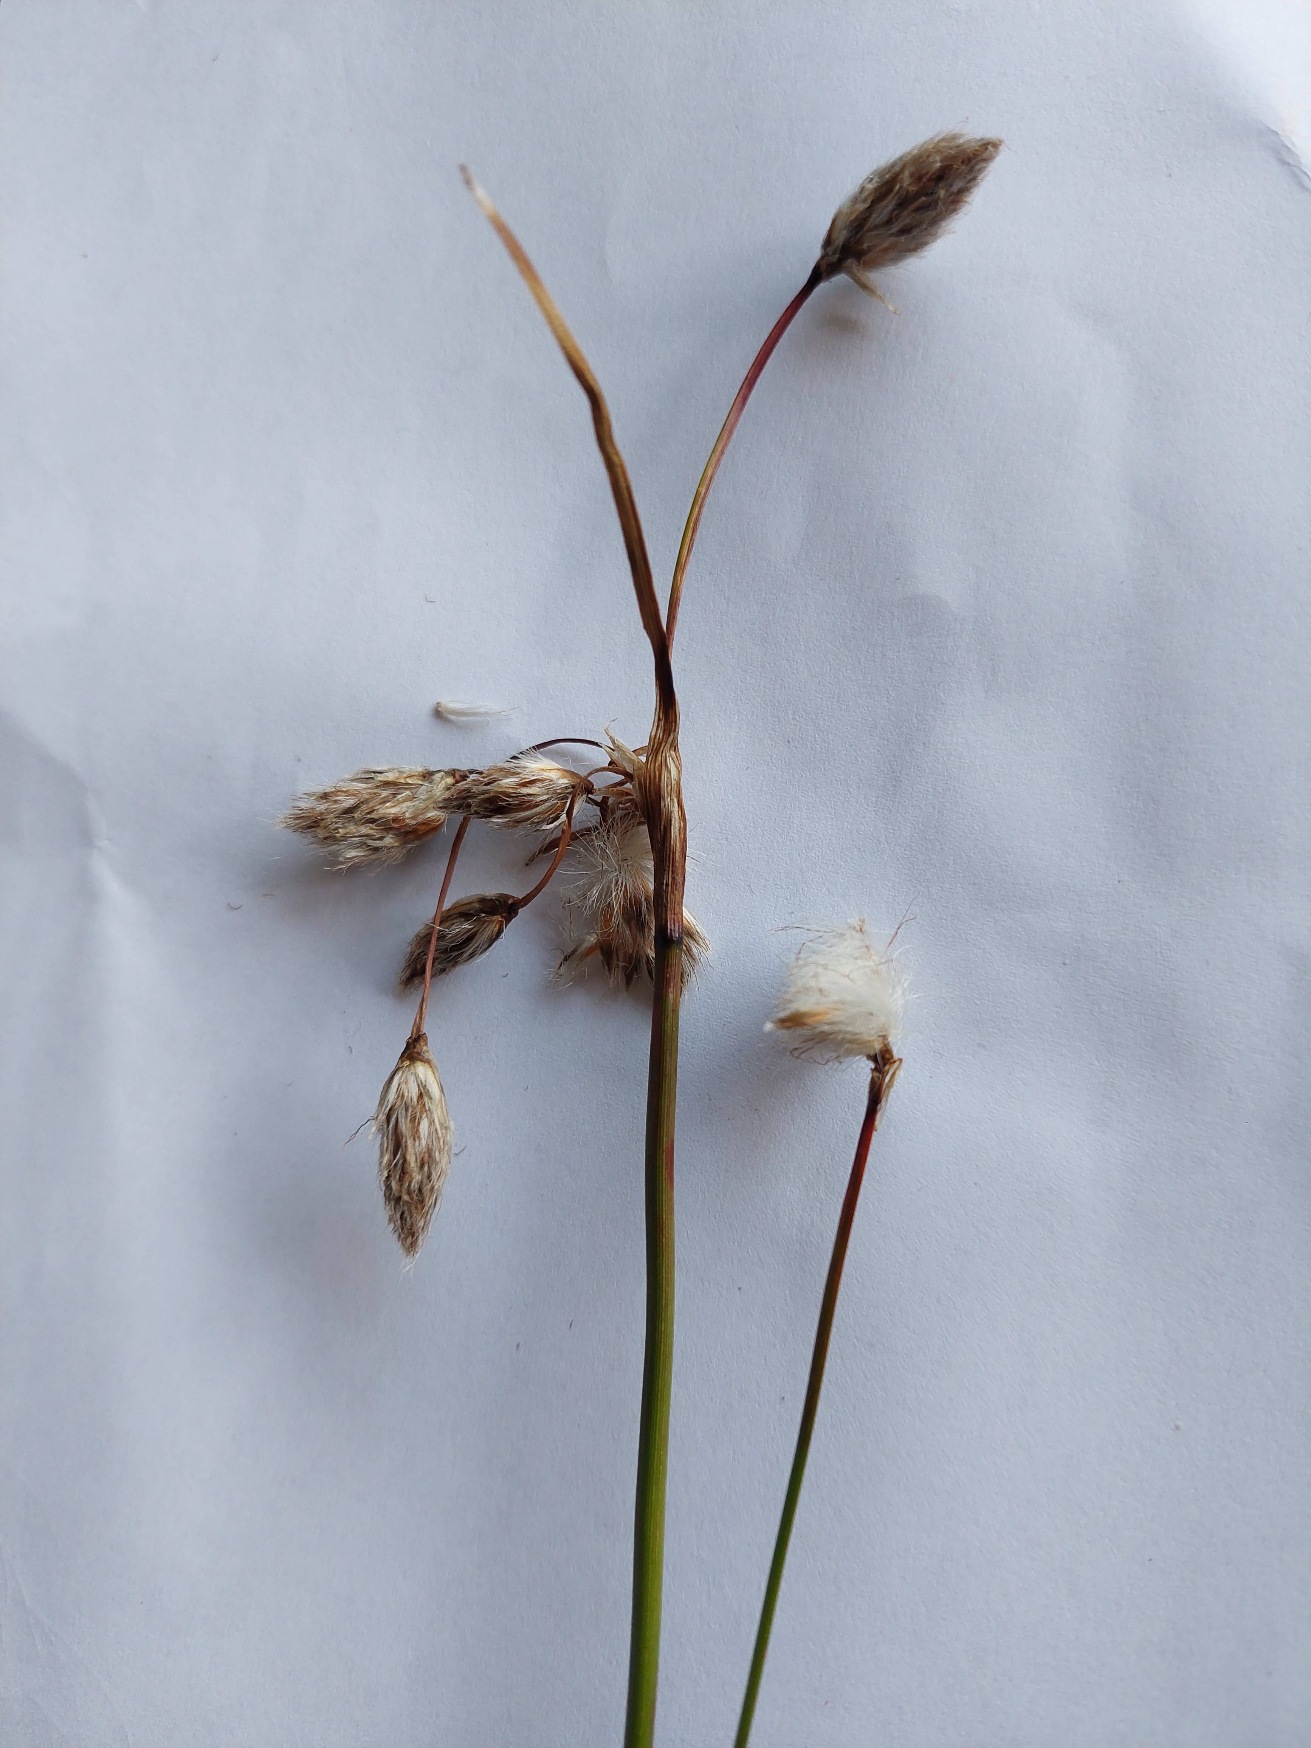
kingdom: Plantae
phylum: Tracheophyta
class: Liliopsida
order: Poales
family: Cyperaceae
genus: Eriophorum
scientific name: Eriophorum angustifolium
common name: Smalbladet kæruld
